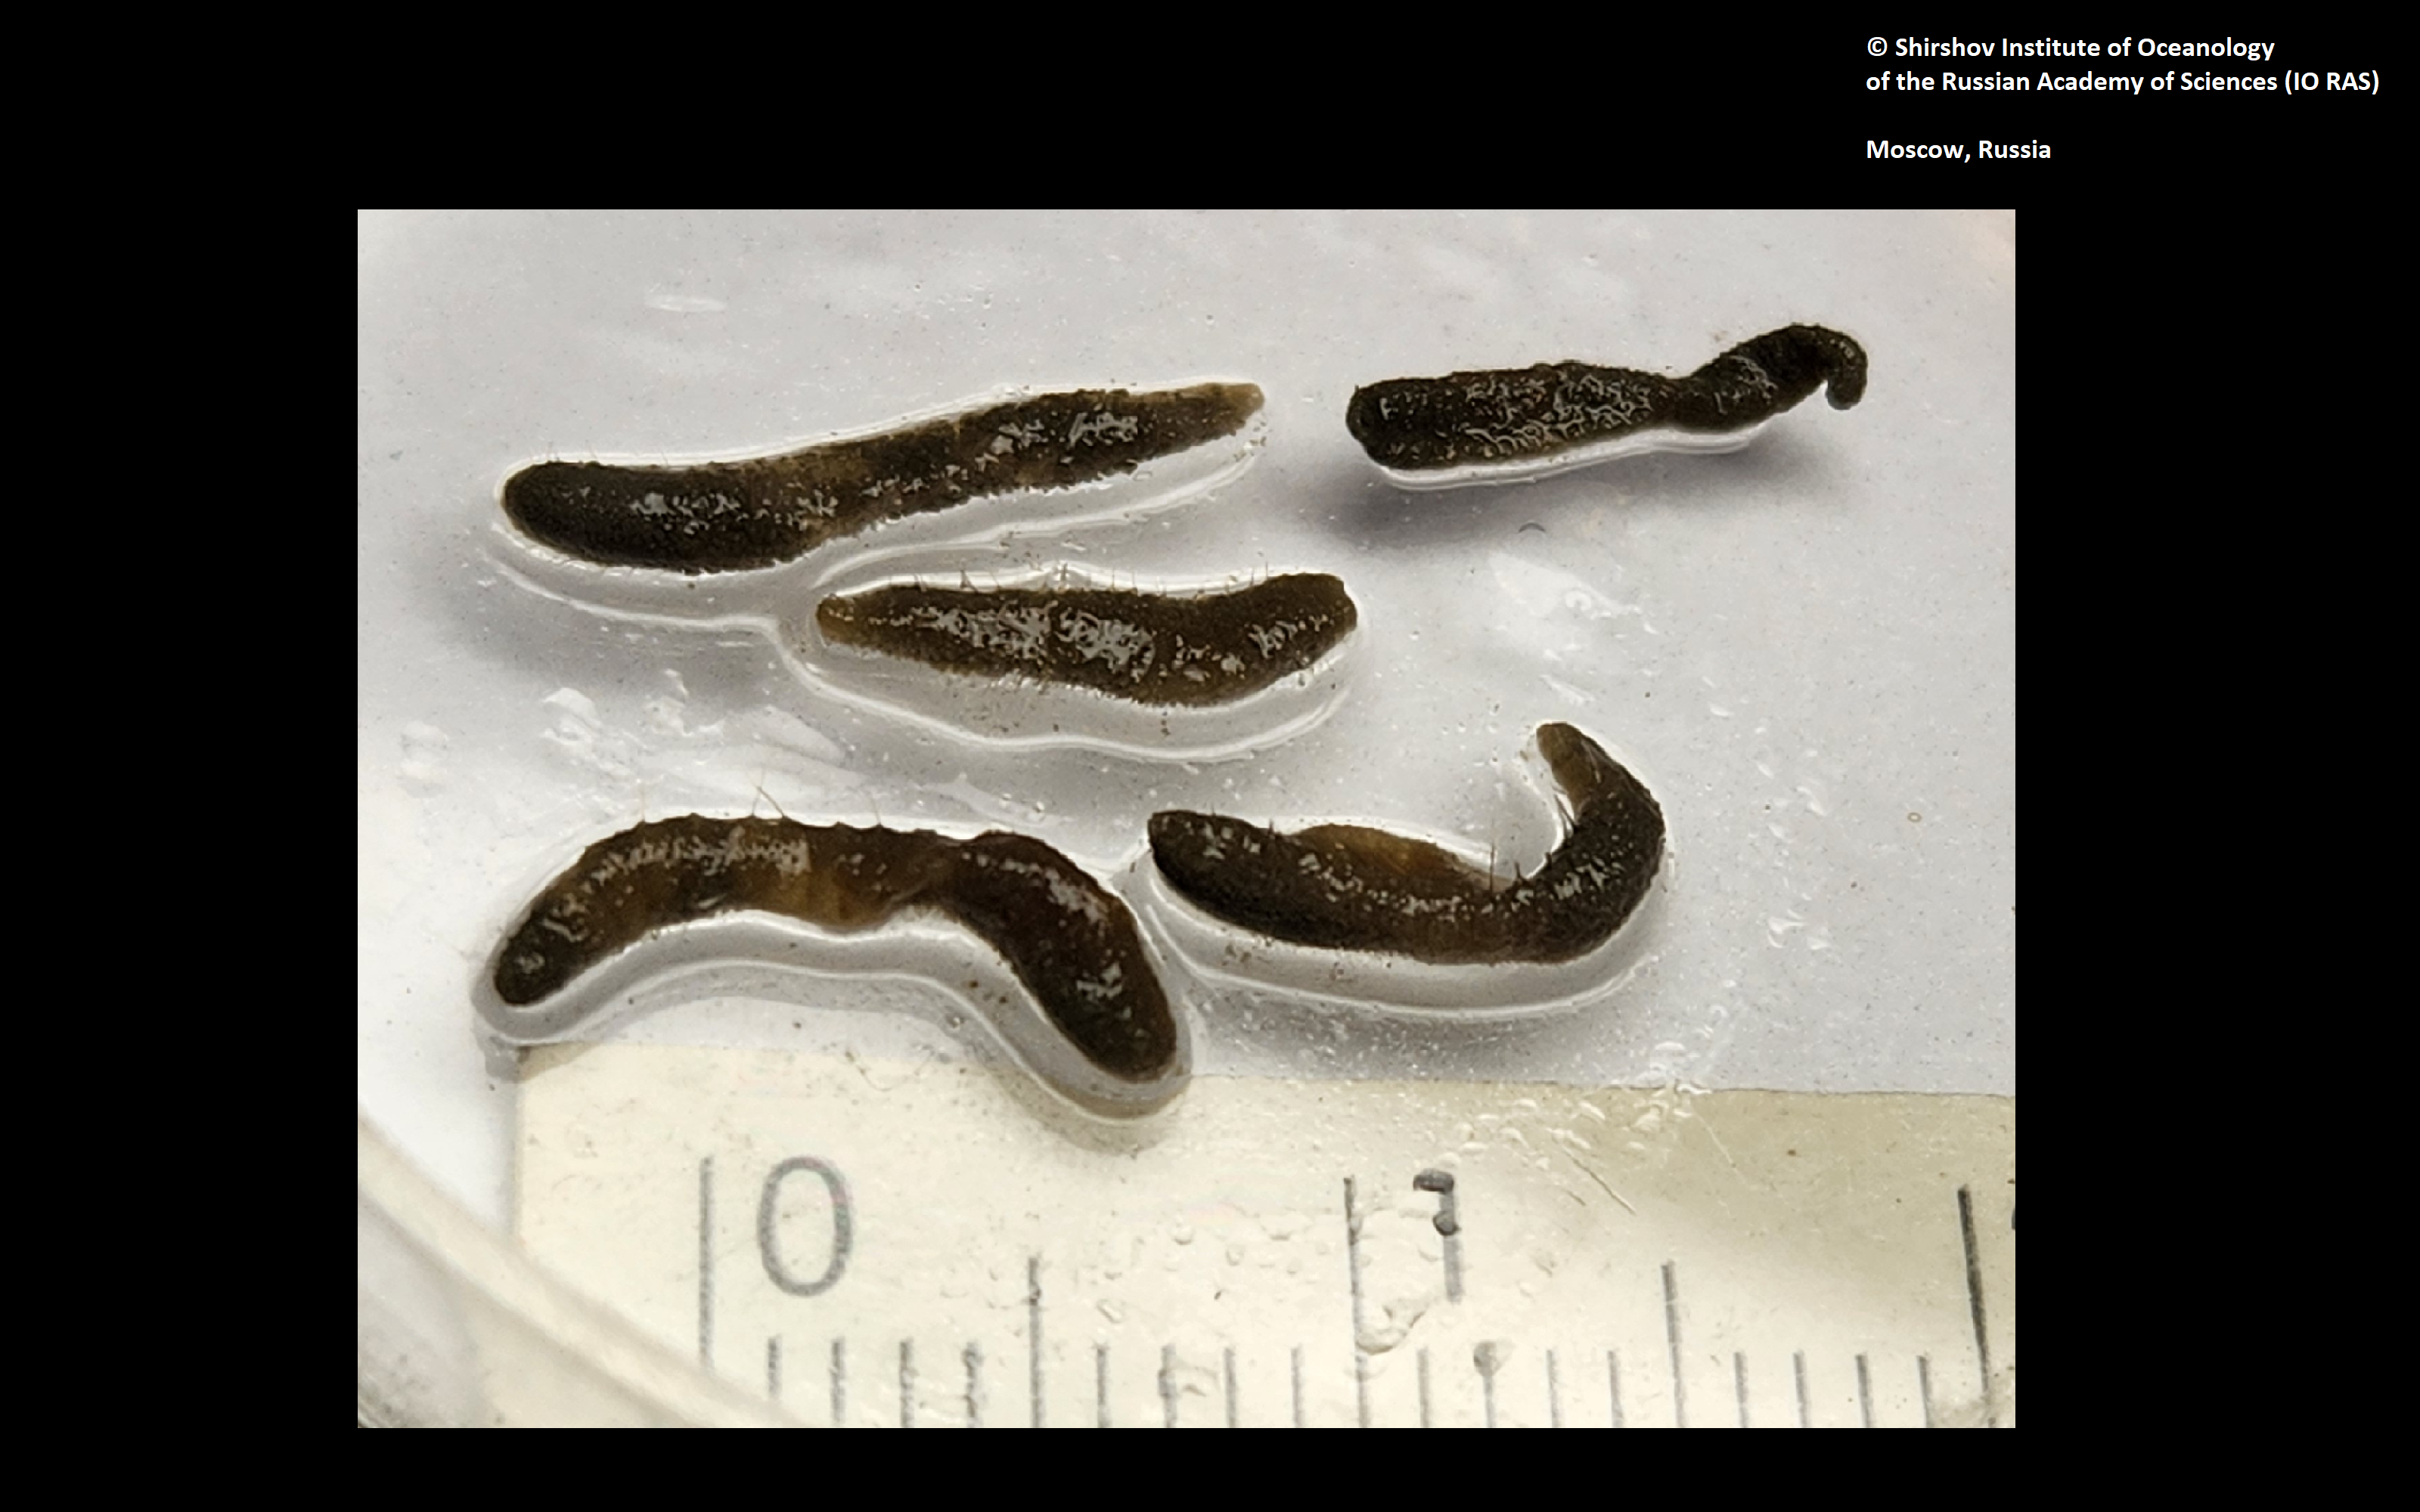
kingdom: Animalia
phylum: Annelida
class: Polychaeta
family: Flabelligeridae
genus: Bradabyssa
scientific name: Bradabyssa hartmanae
